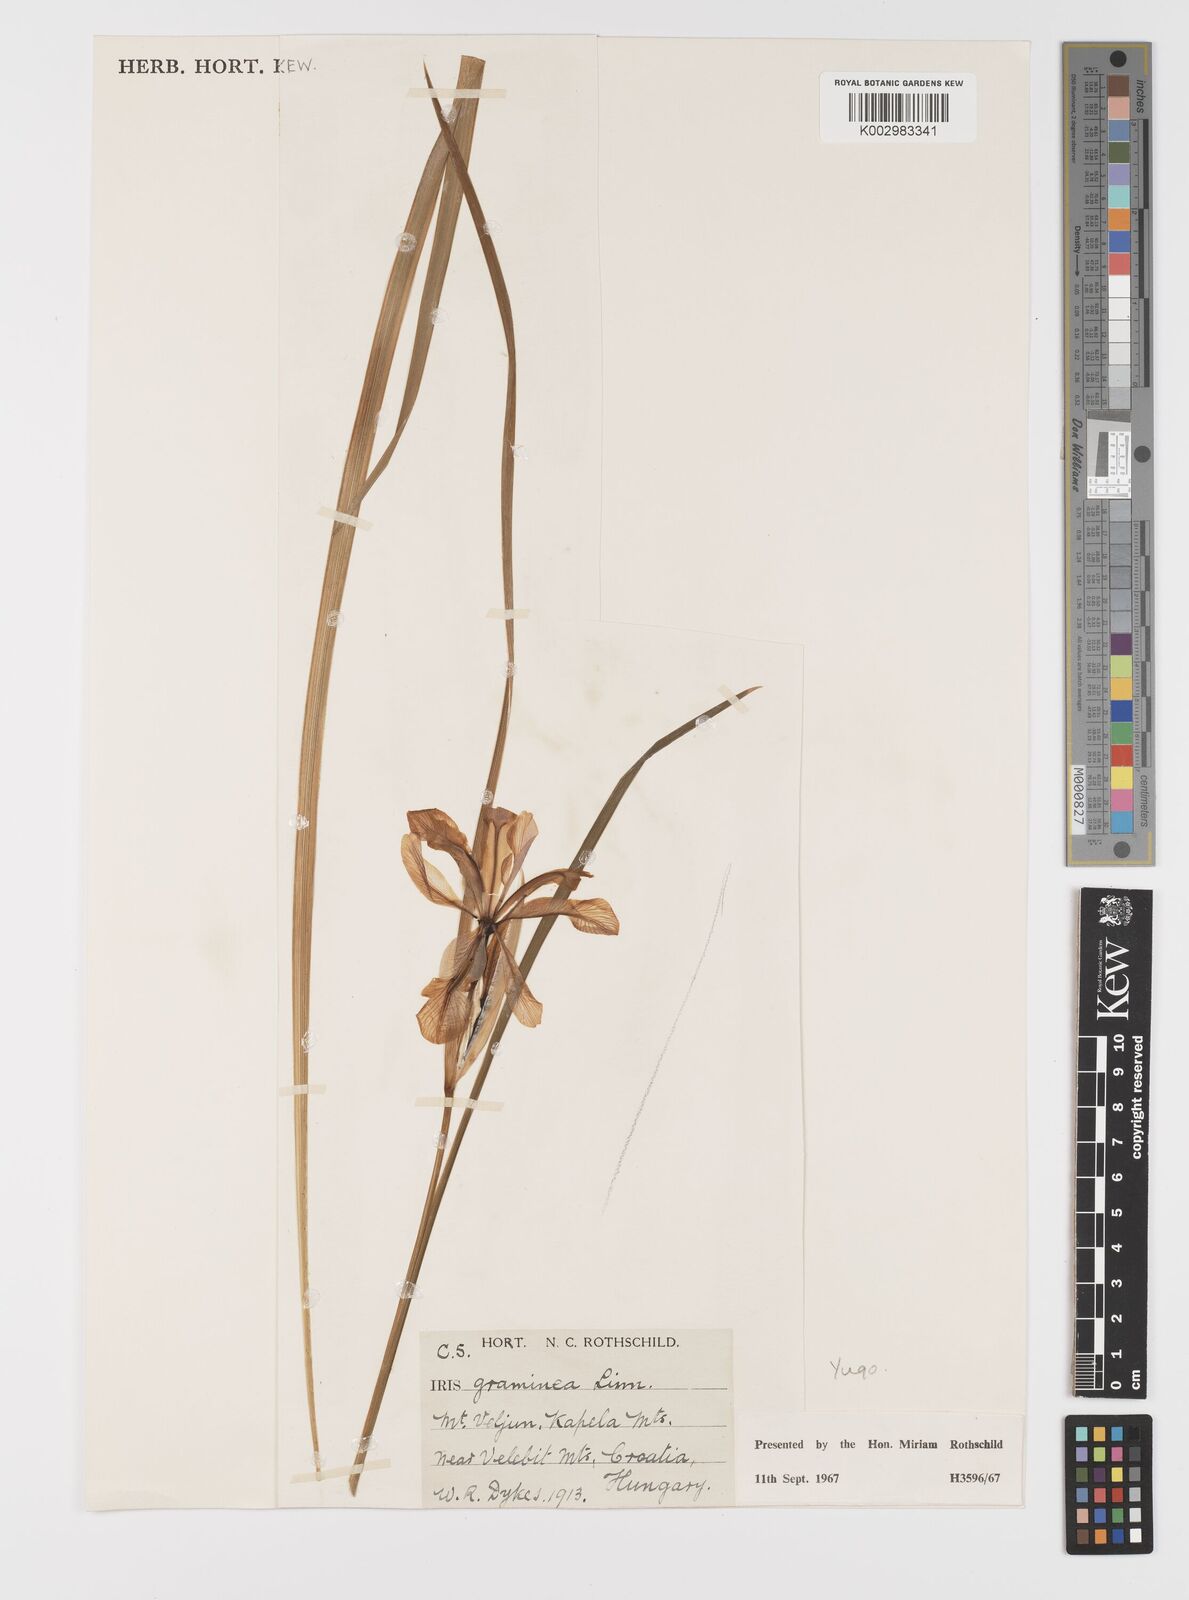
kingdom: Plantae
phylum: Tracheophyta
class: Liliopsida
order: Asparagales
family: Iridaceae
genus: Iris
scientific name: Iris graminea
